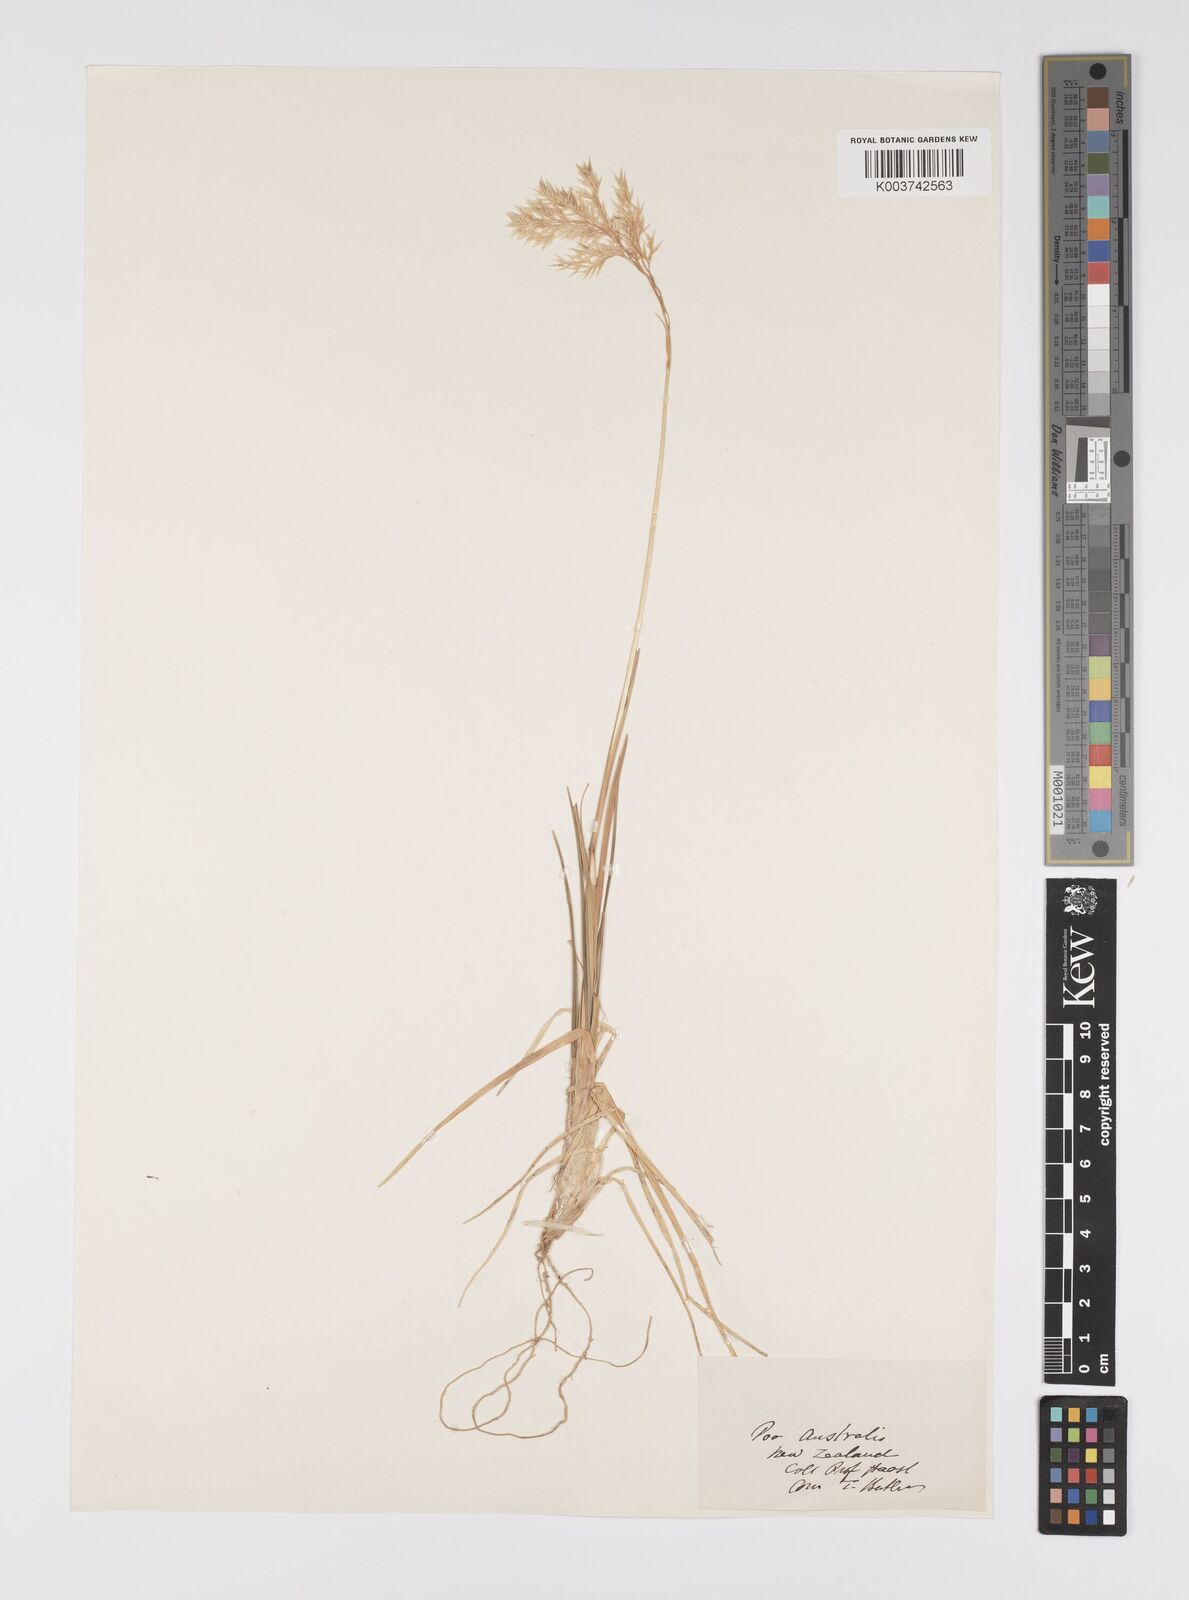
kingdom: Plantae
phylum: Tracheophyta
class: Liliopsida
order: Poales
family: Poaceae
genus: Poa
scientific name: Poa anceps
